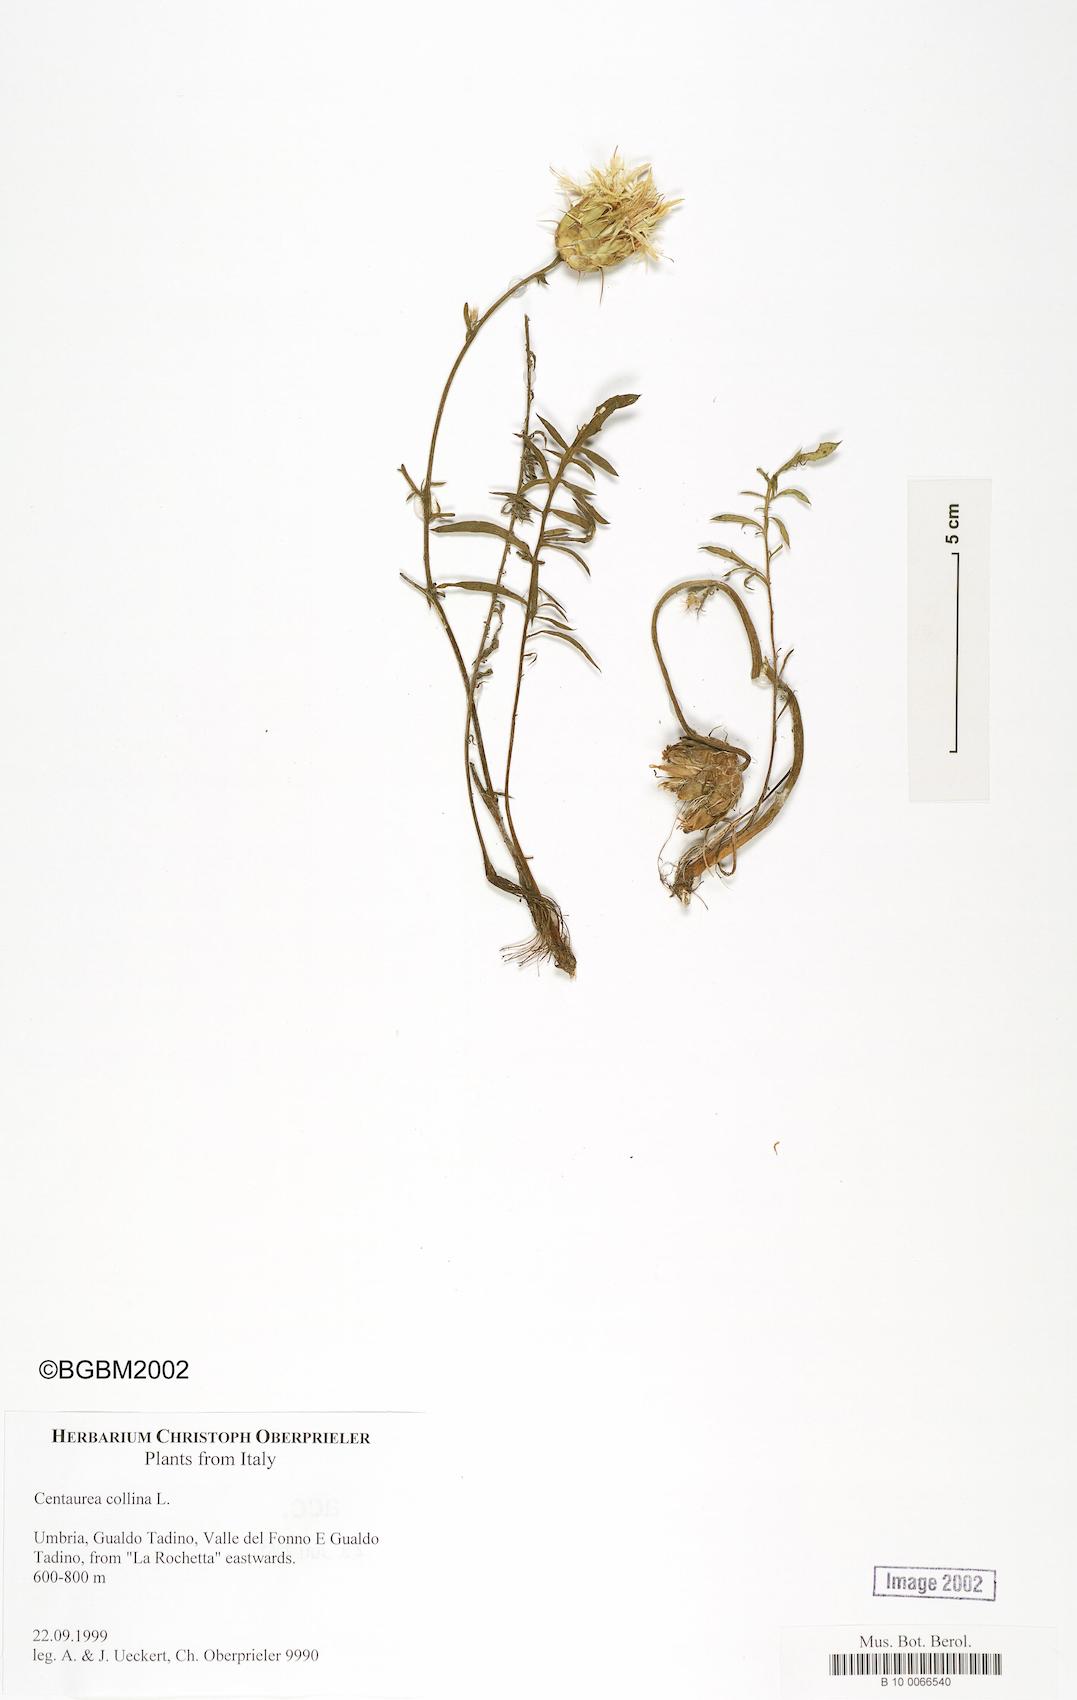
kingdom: Plantae
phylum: Tracheophyta
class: Magnoliopsida
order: Asterales
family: Asteraceae
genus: Centaurea
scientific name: Centaurea collina
